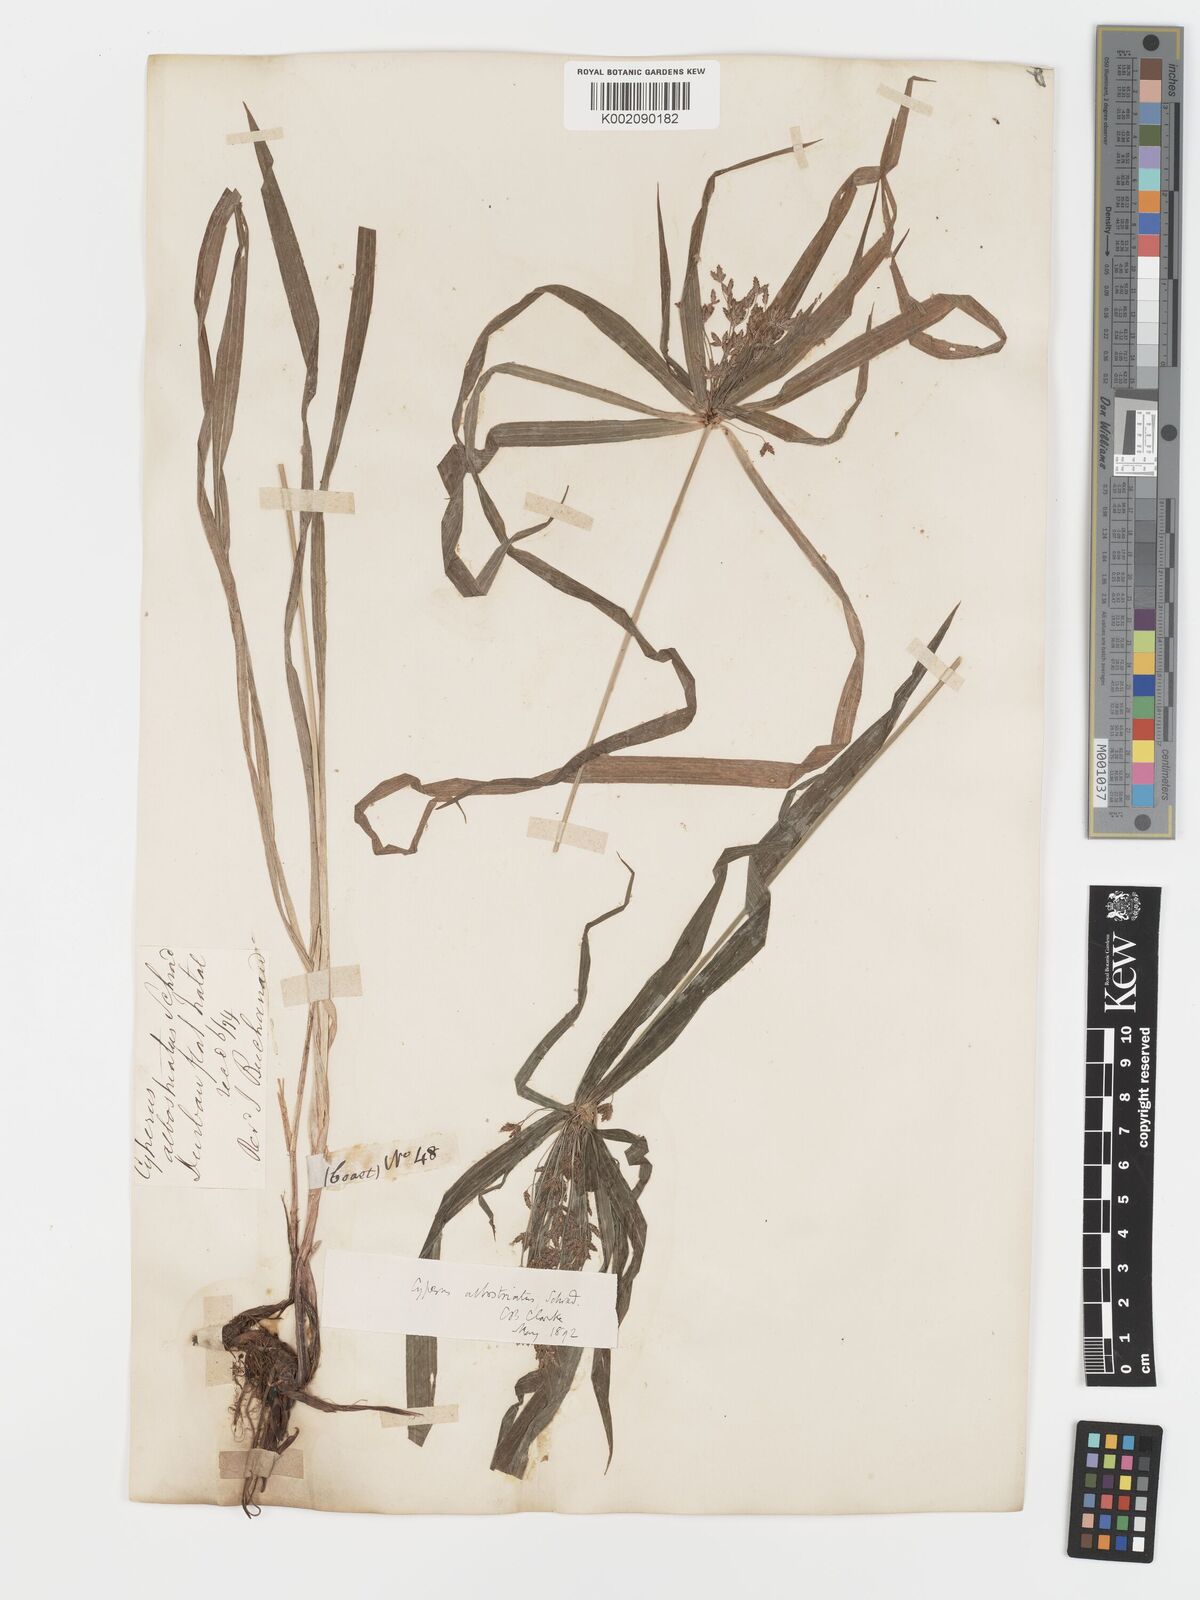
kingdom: Plantae
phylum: Tracheophyta
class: Liliopsida
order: Poales
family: Cyperaceae
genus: Cyperus
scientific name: Cyperus albostriatus
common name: Dwarf umbrella-grass
